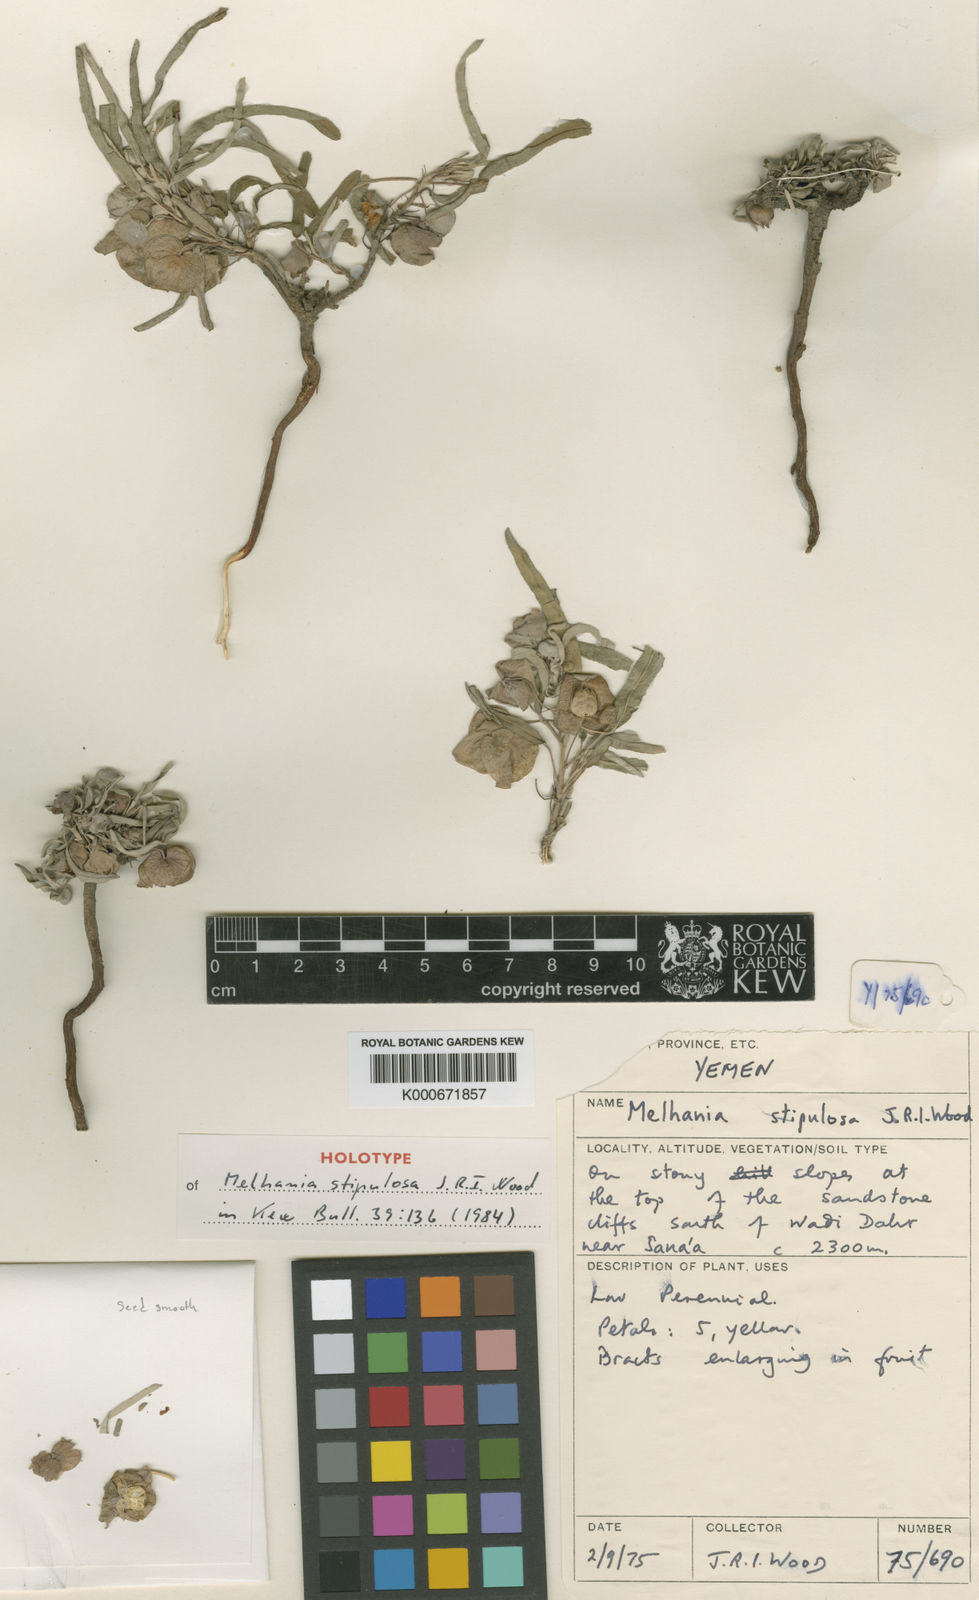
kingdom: Plantae
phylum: Tracheophyta
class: Magnoliopsida
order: Malvales
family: Malvaceae
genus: Melhania
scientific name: Melhania stipulosa
